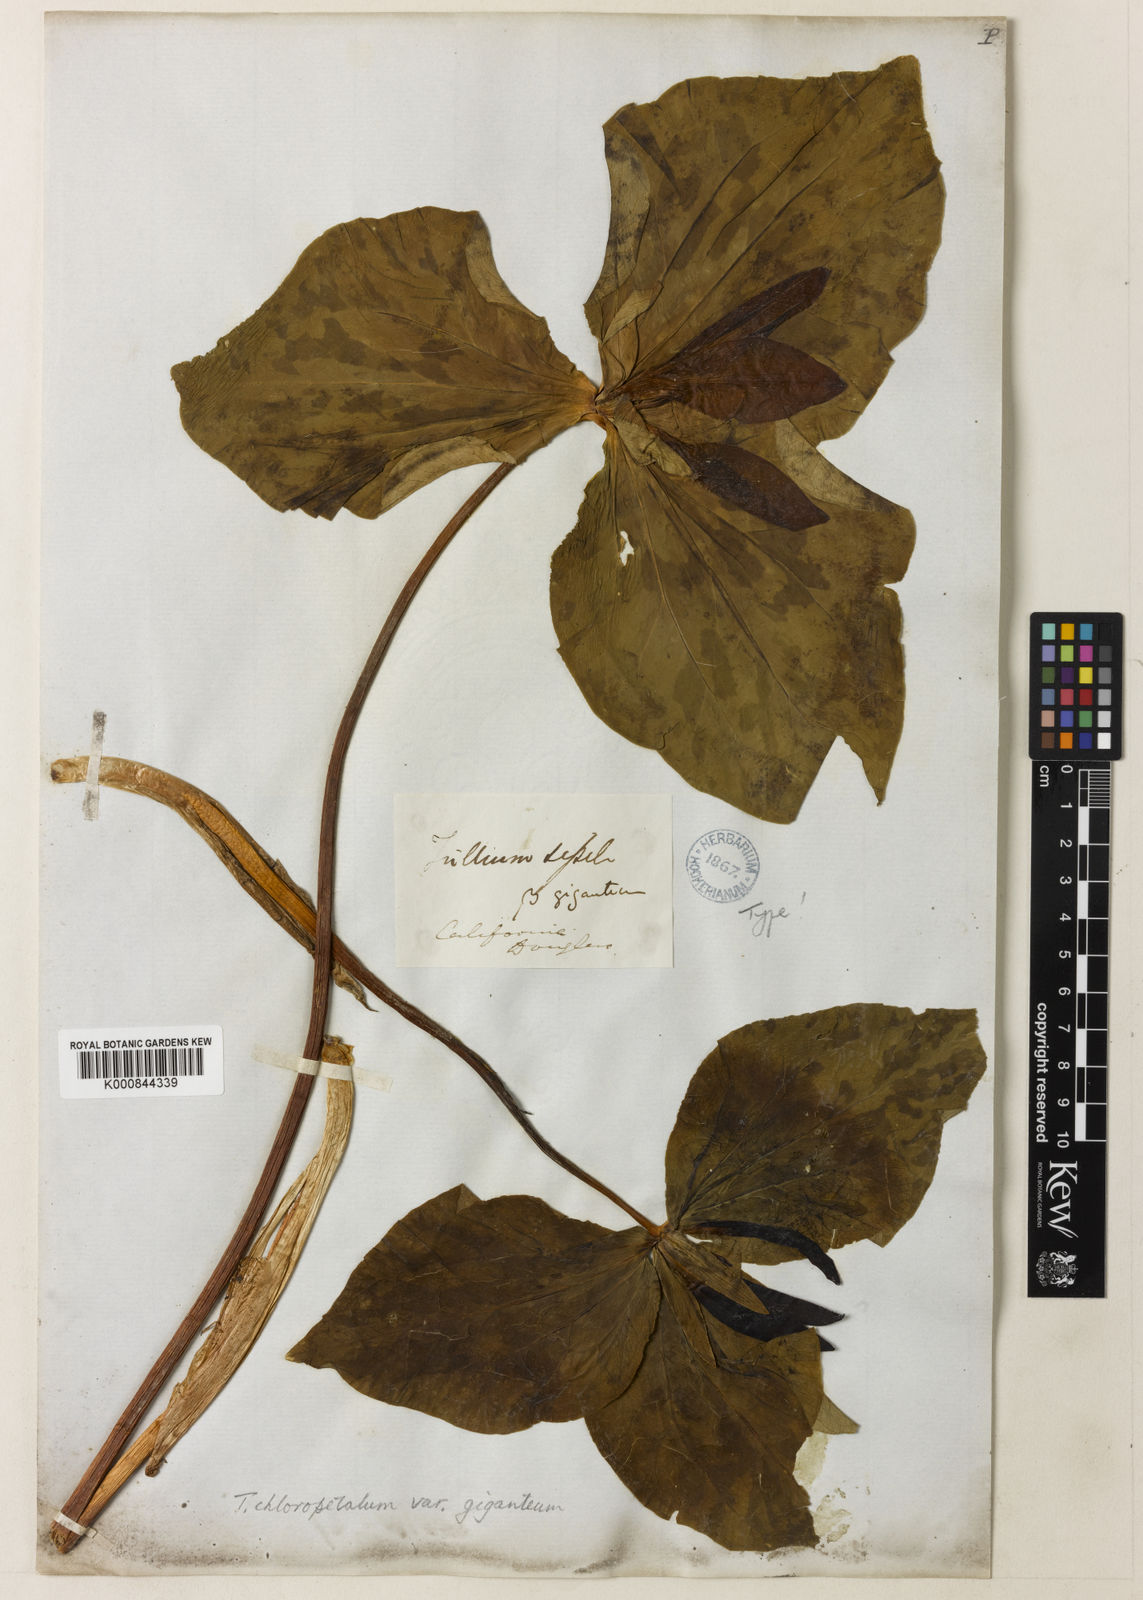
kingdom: Plantae
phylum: Tracheophyta
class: Liliopsida
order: Liliales
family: Melanthiaceae
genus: Trillium
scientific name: Trillium chloropetalum
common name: Giant trillium
